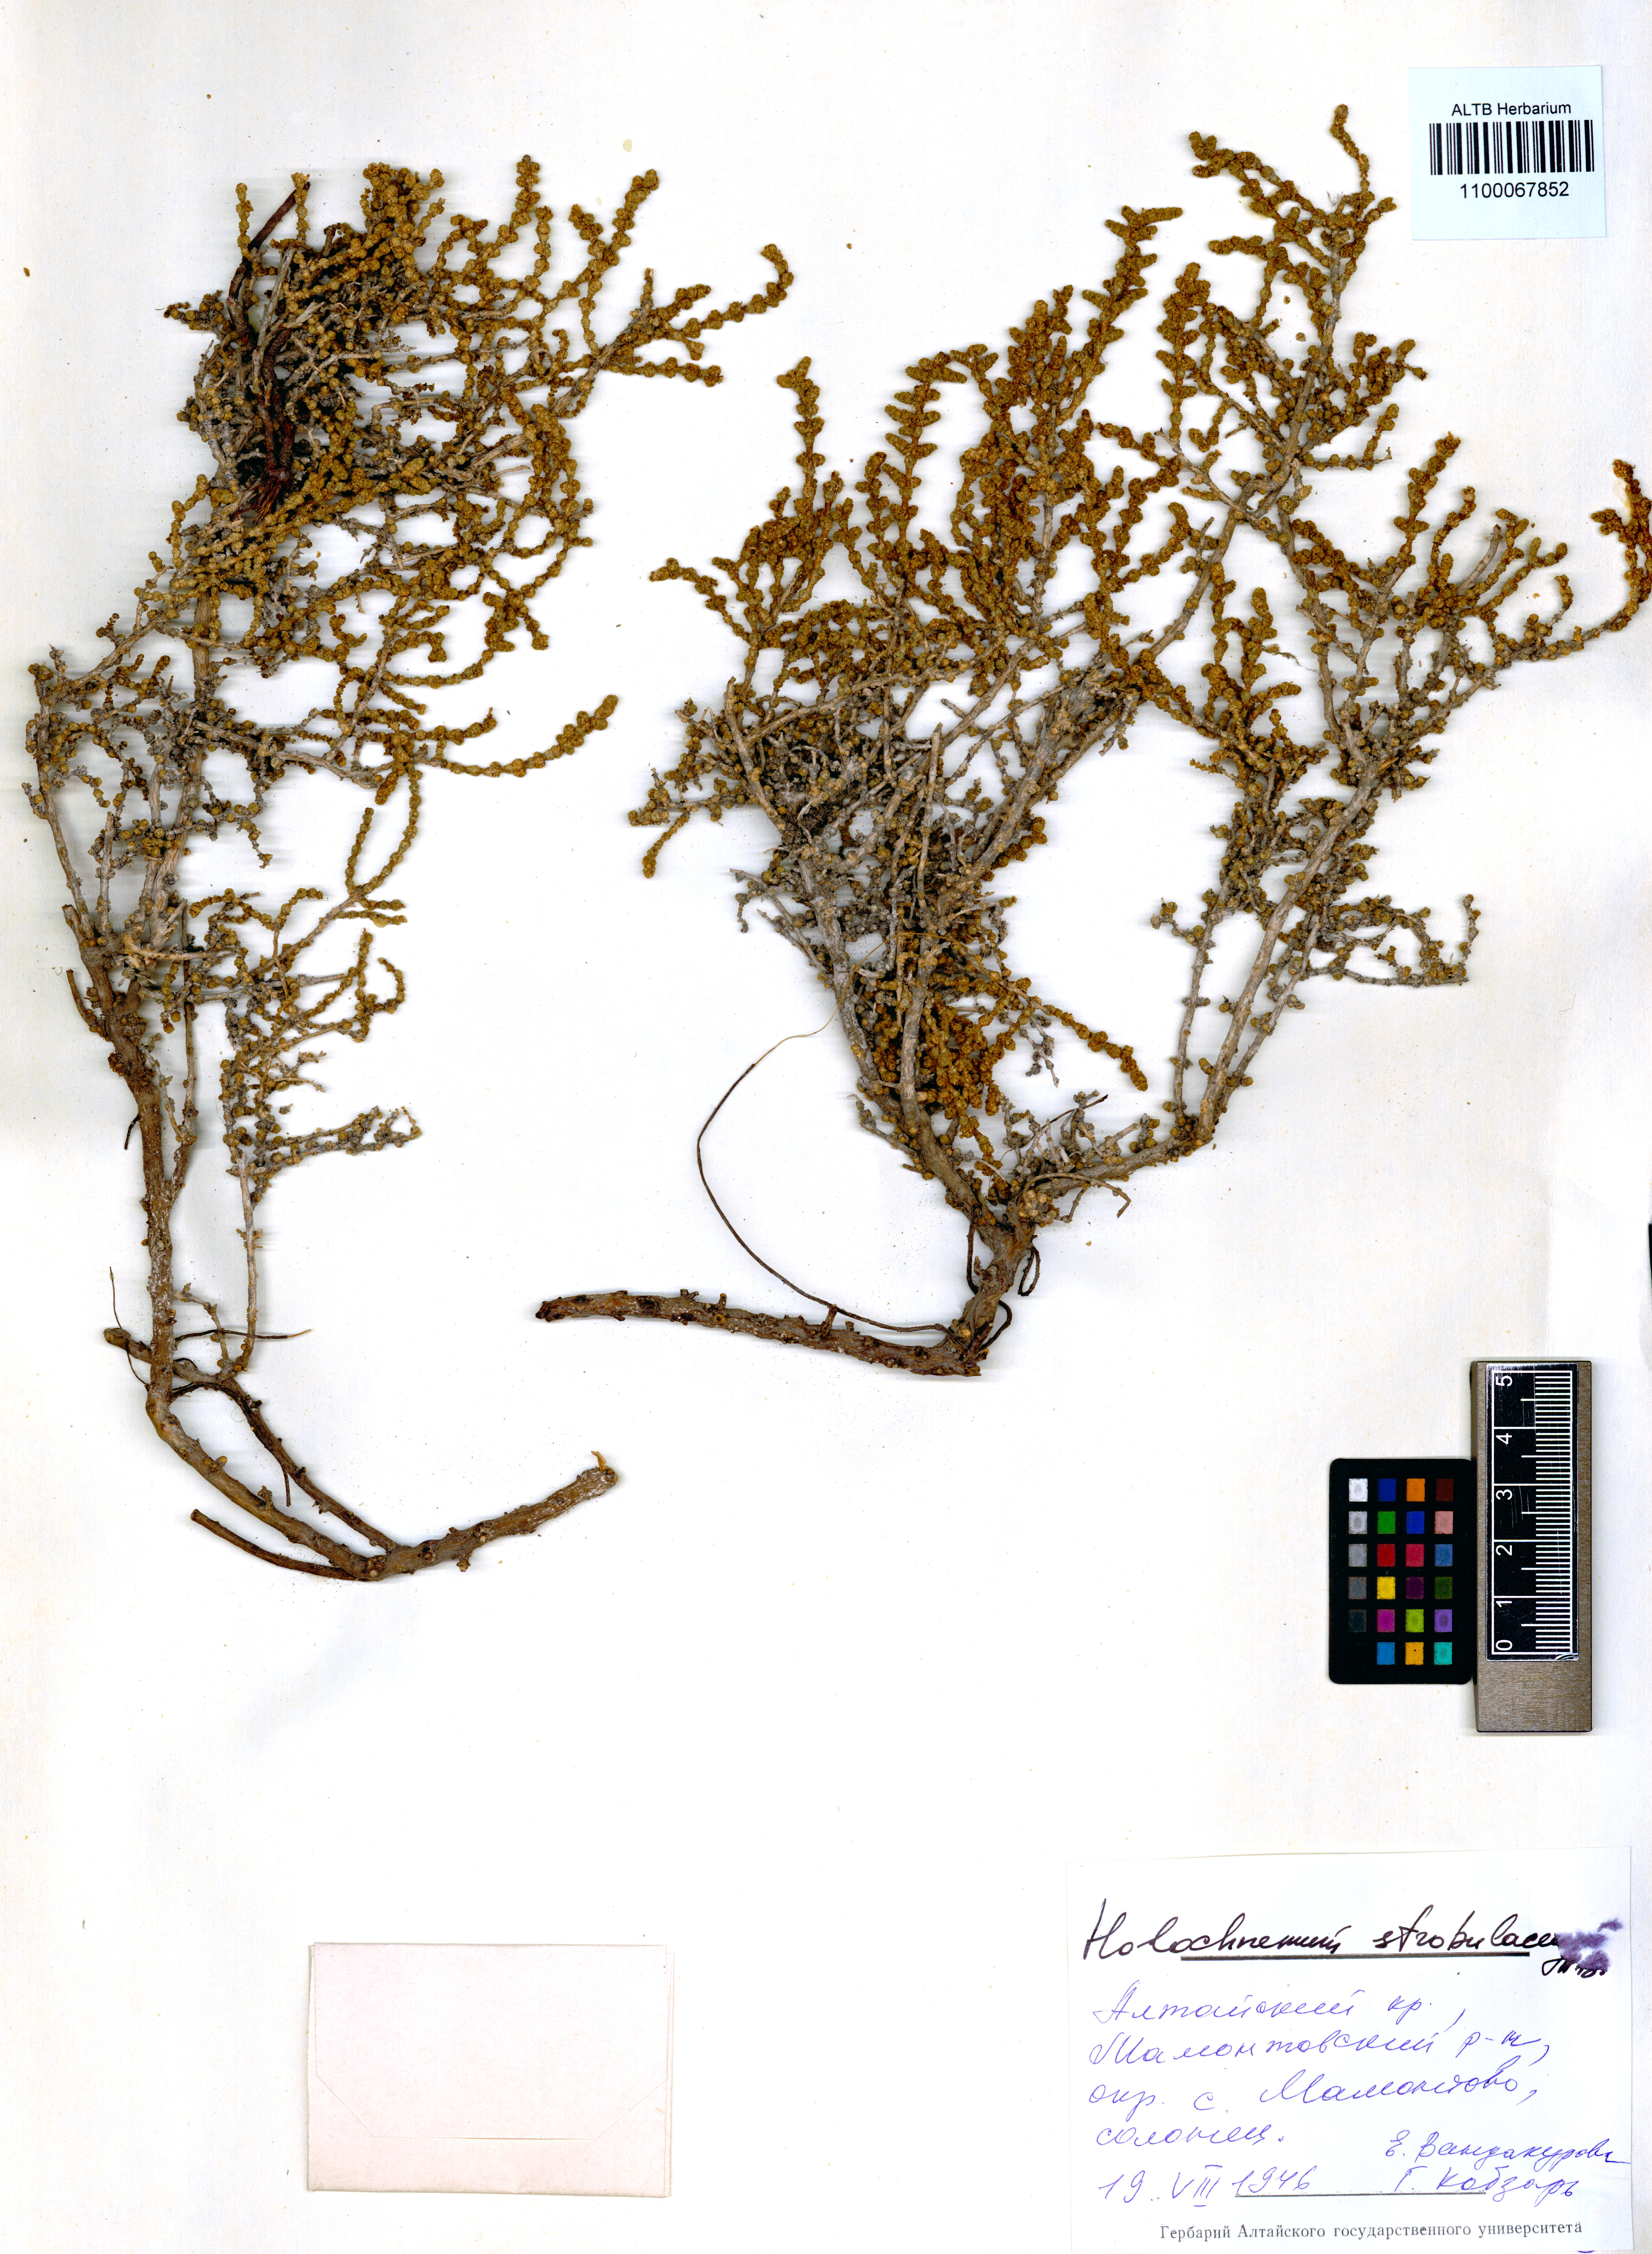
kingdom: Plantae
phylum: Tracheophyta
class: Magnoliopsida
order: Caryophyllales
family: Amaranthaceae
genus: Halocnemum
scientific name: Halocnemum strobilaceum
